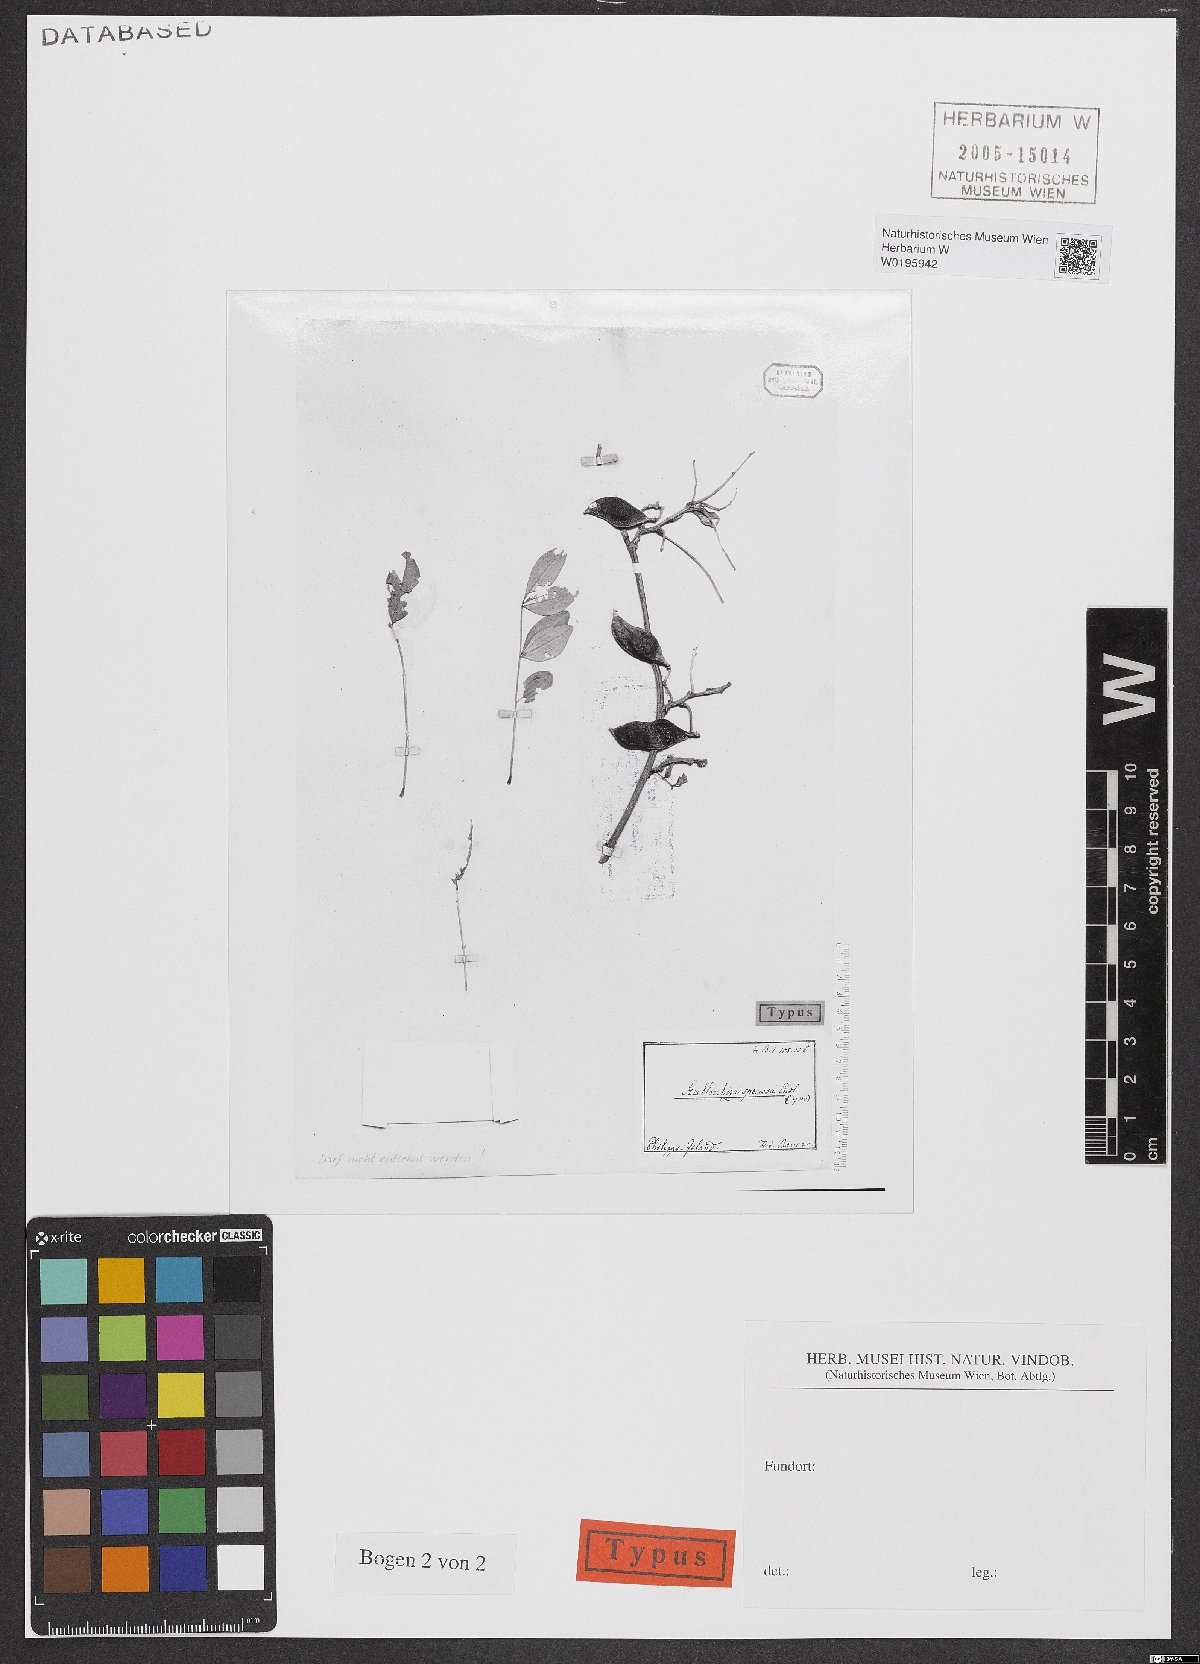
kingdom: Plantae
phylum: Tracheophyta
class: Magnoliopsida
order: Fabales
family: Fabaceae
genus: Streblorrhiza
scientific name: Streblorrhiza speciosa
